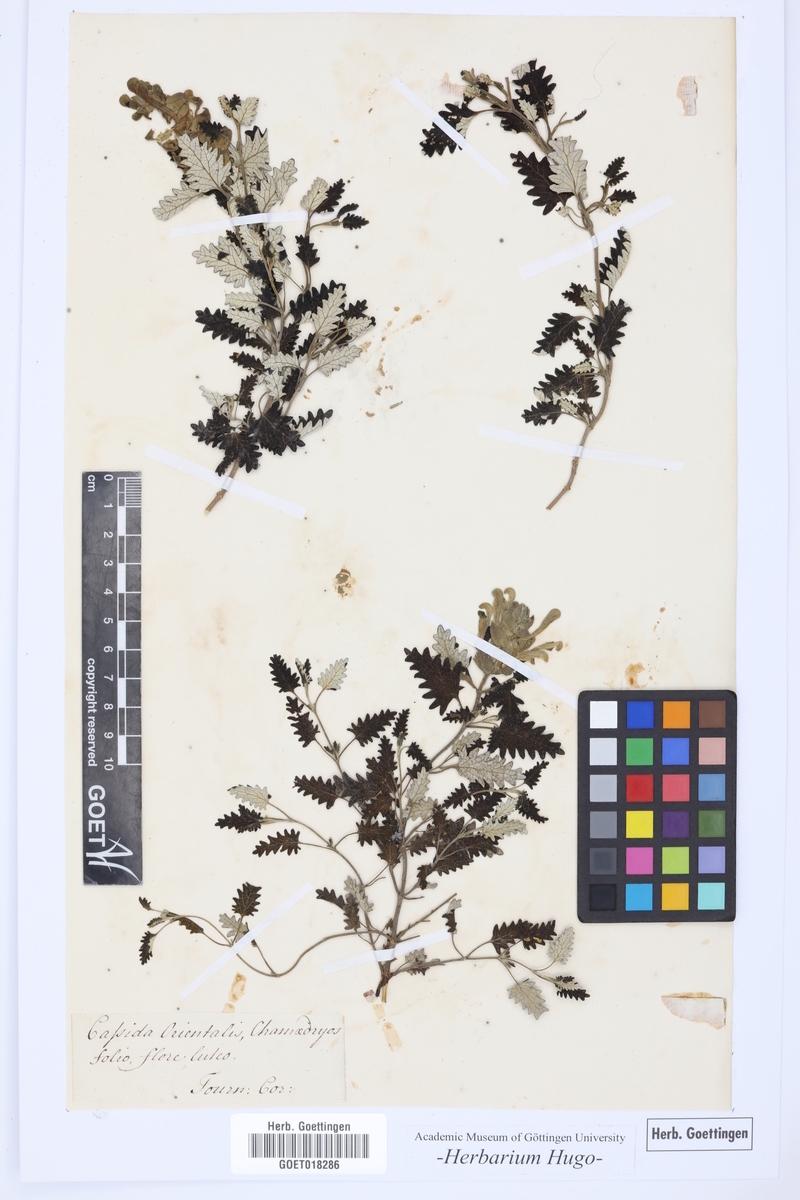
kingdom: Plantae
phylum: Tracheophyta
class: Magnoliopsida
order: Lamiales
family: Lamiaceae
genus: Scutellaria
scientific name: Scutellaria orientalis
